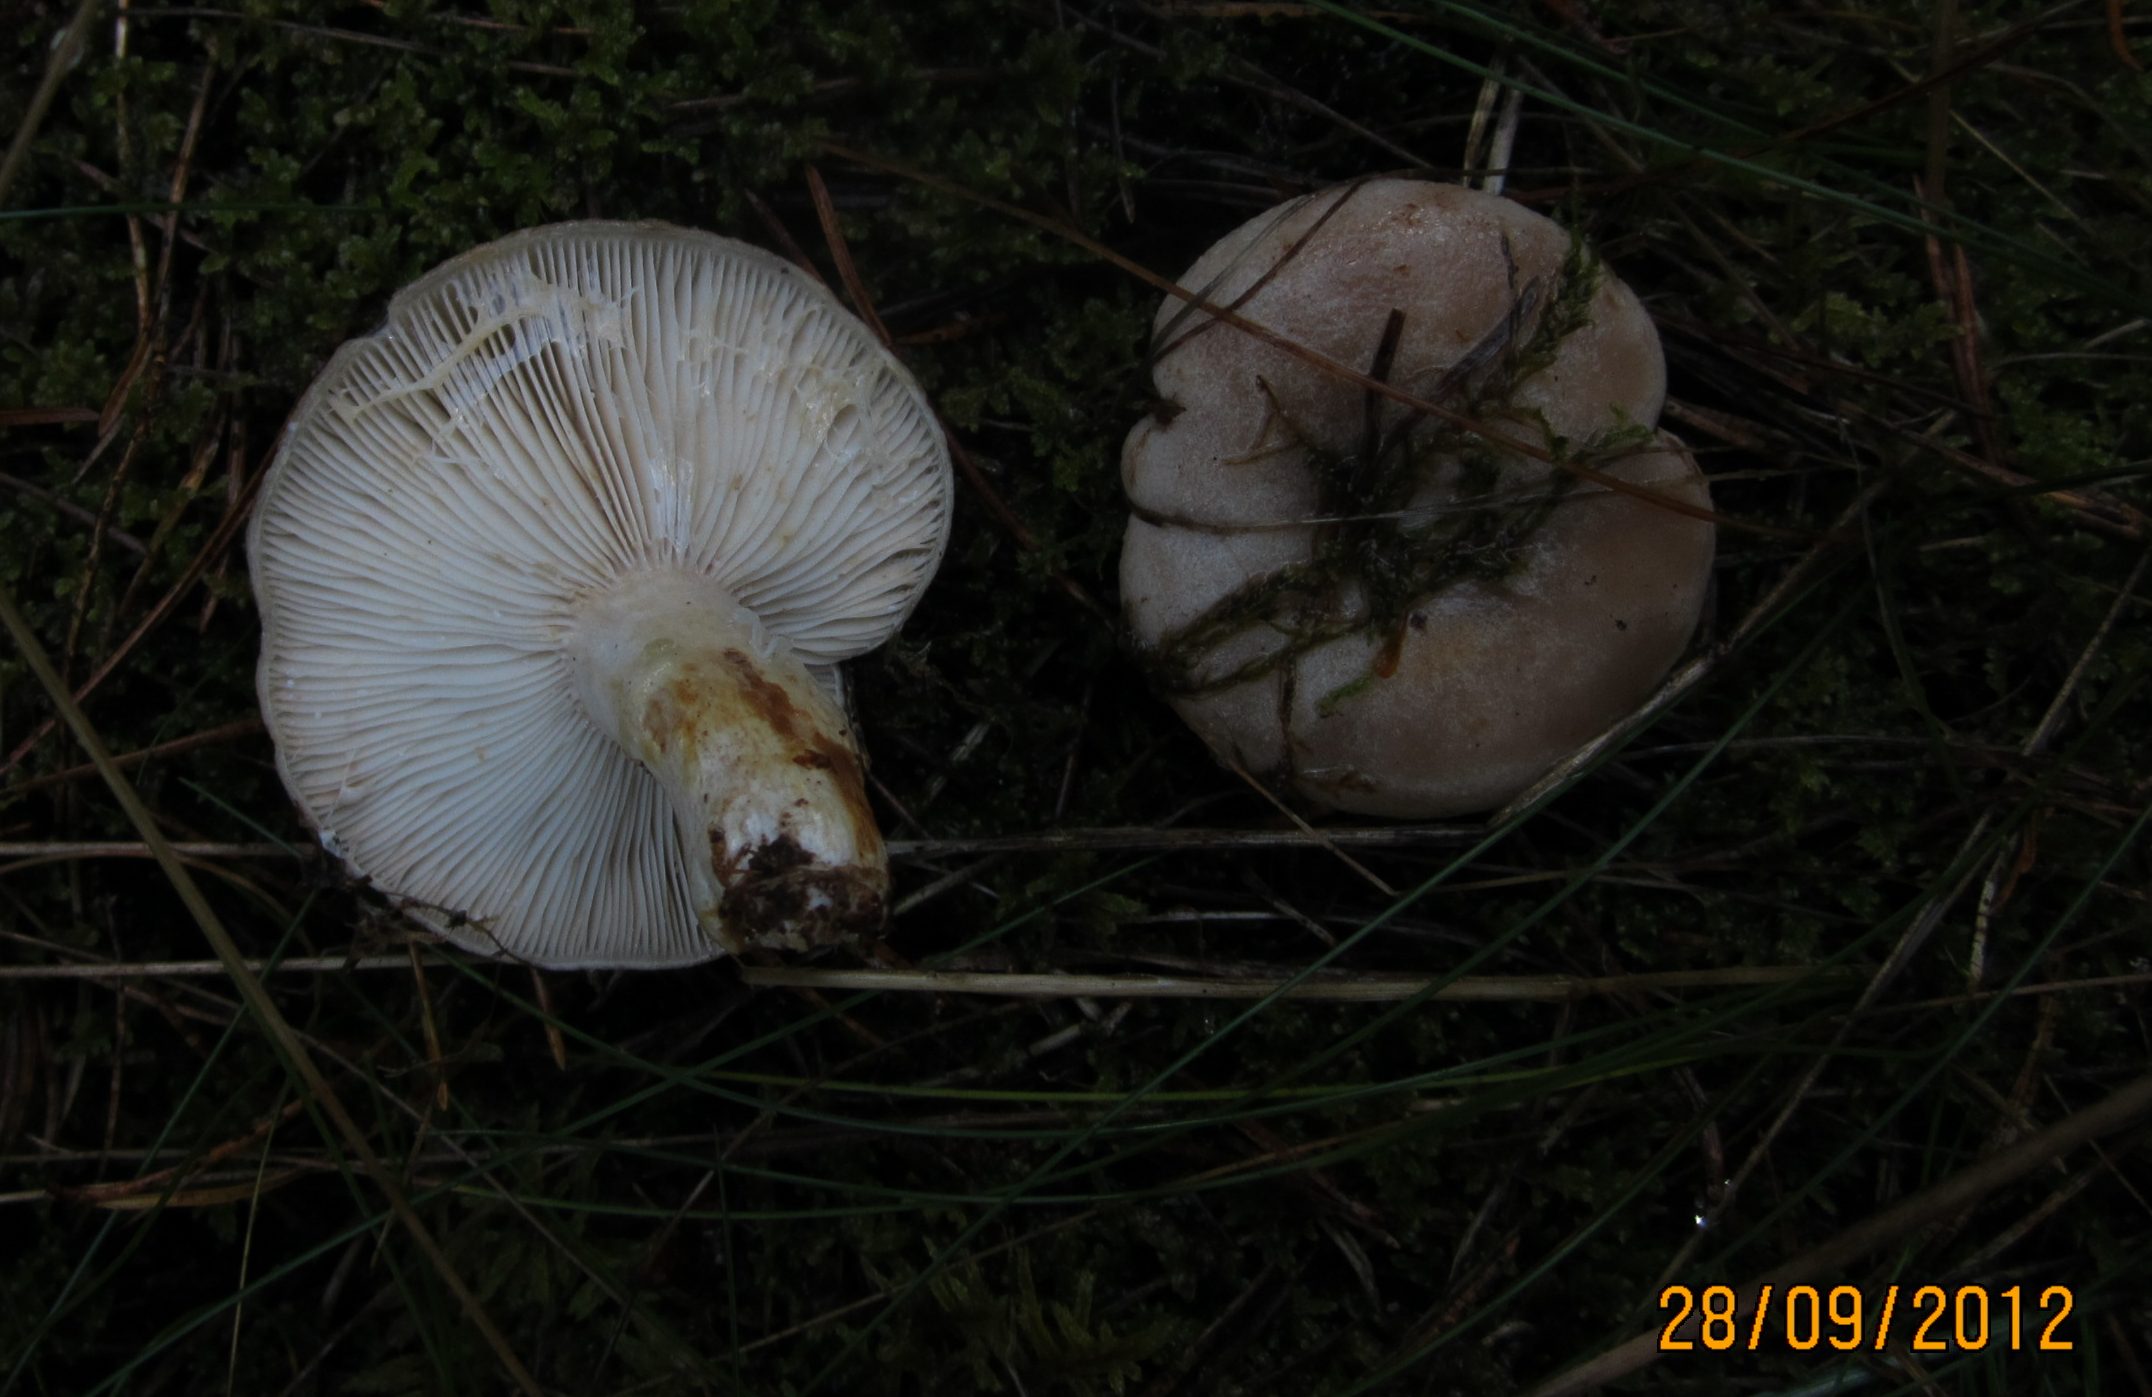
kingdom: Fungi
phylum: Basidiomycota
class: Agaricomycetes
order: Russulales
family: Russulaceae
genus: Lactarius
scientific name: Lactarius musteus
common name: elfenbens-mælkehat
